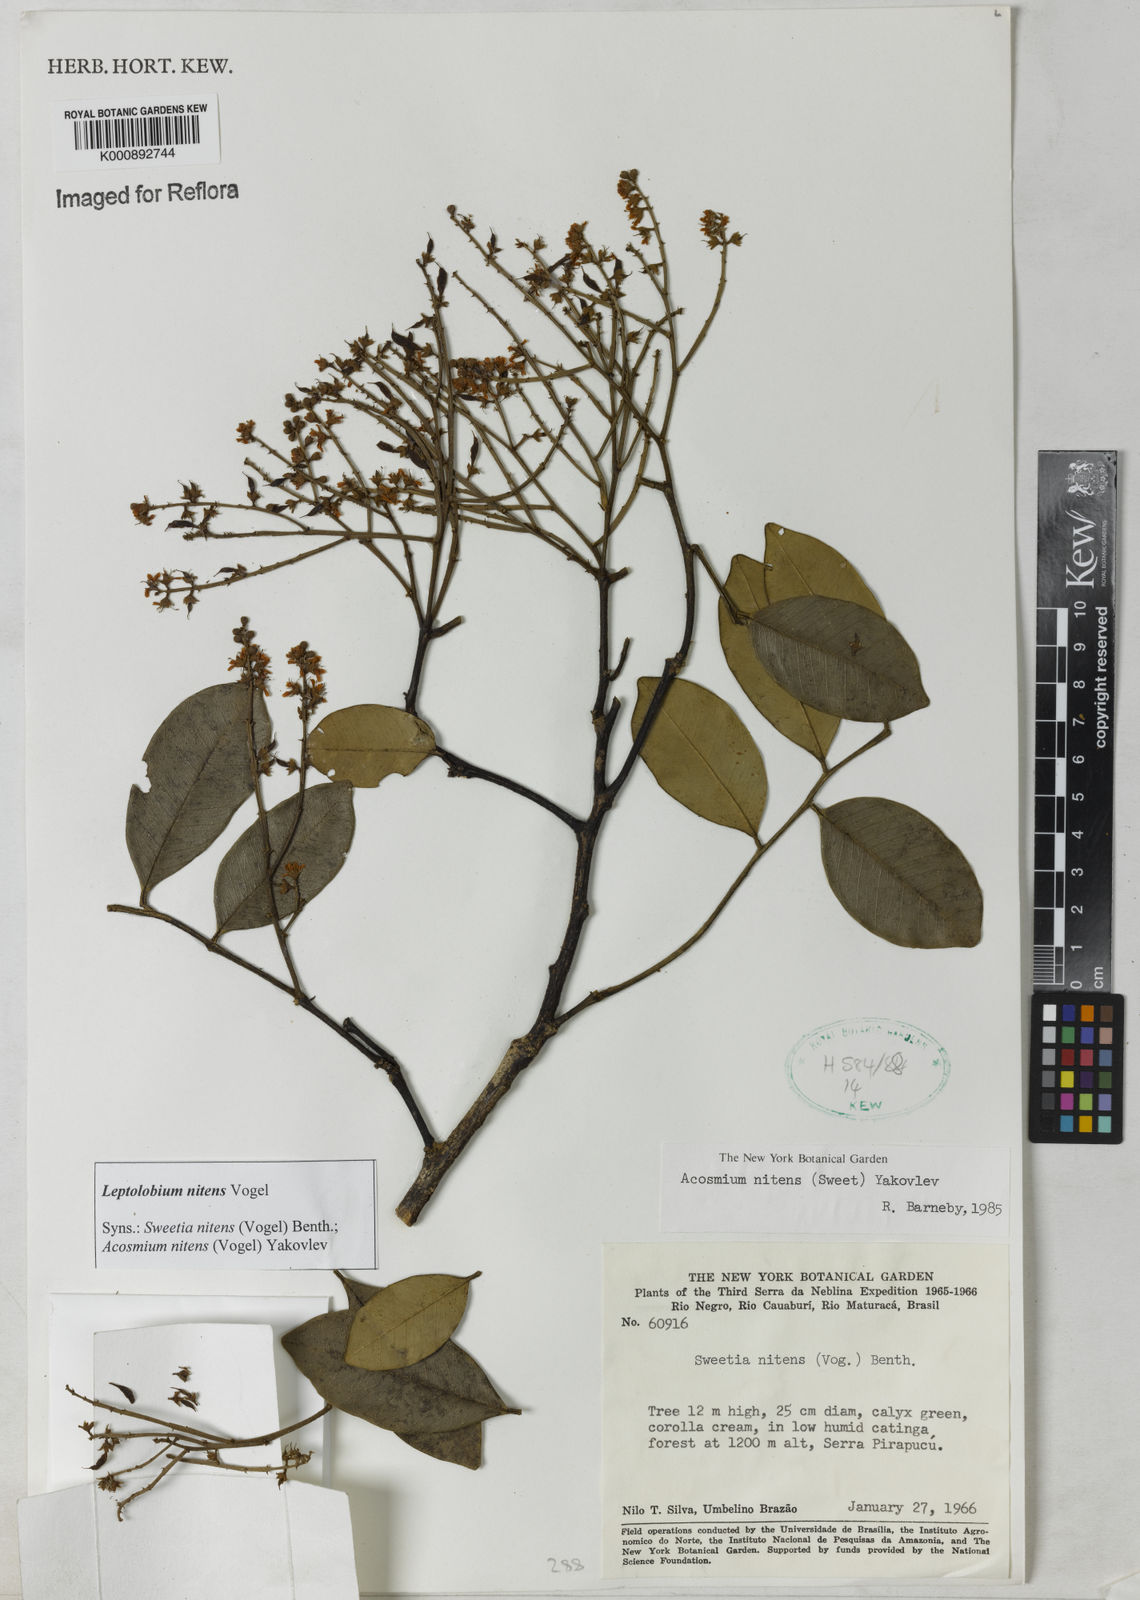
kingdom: Plantae
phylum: Tracheophyta
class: Magnoliopsida
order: Fabales
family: Fabaceae
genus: Leptolobium
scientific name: Leptolobium nitens
